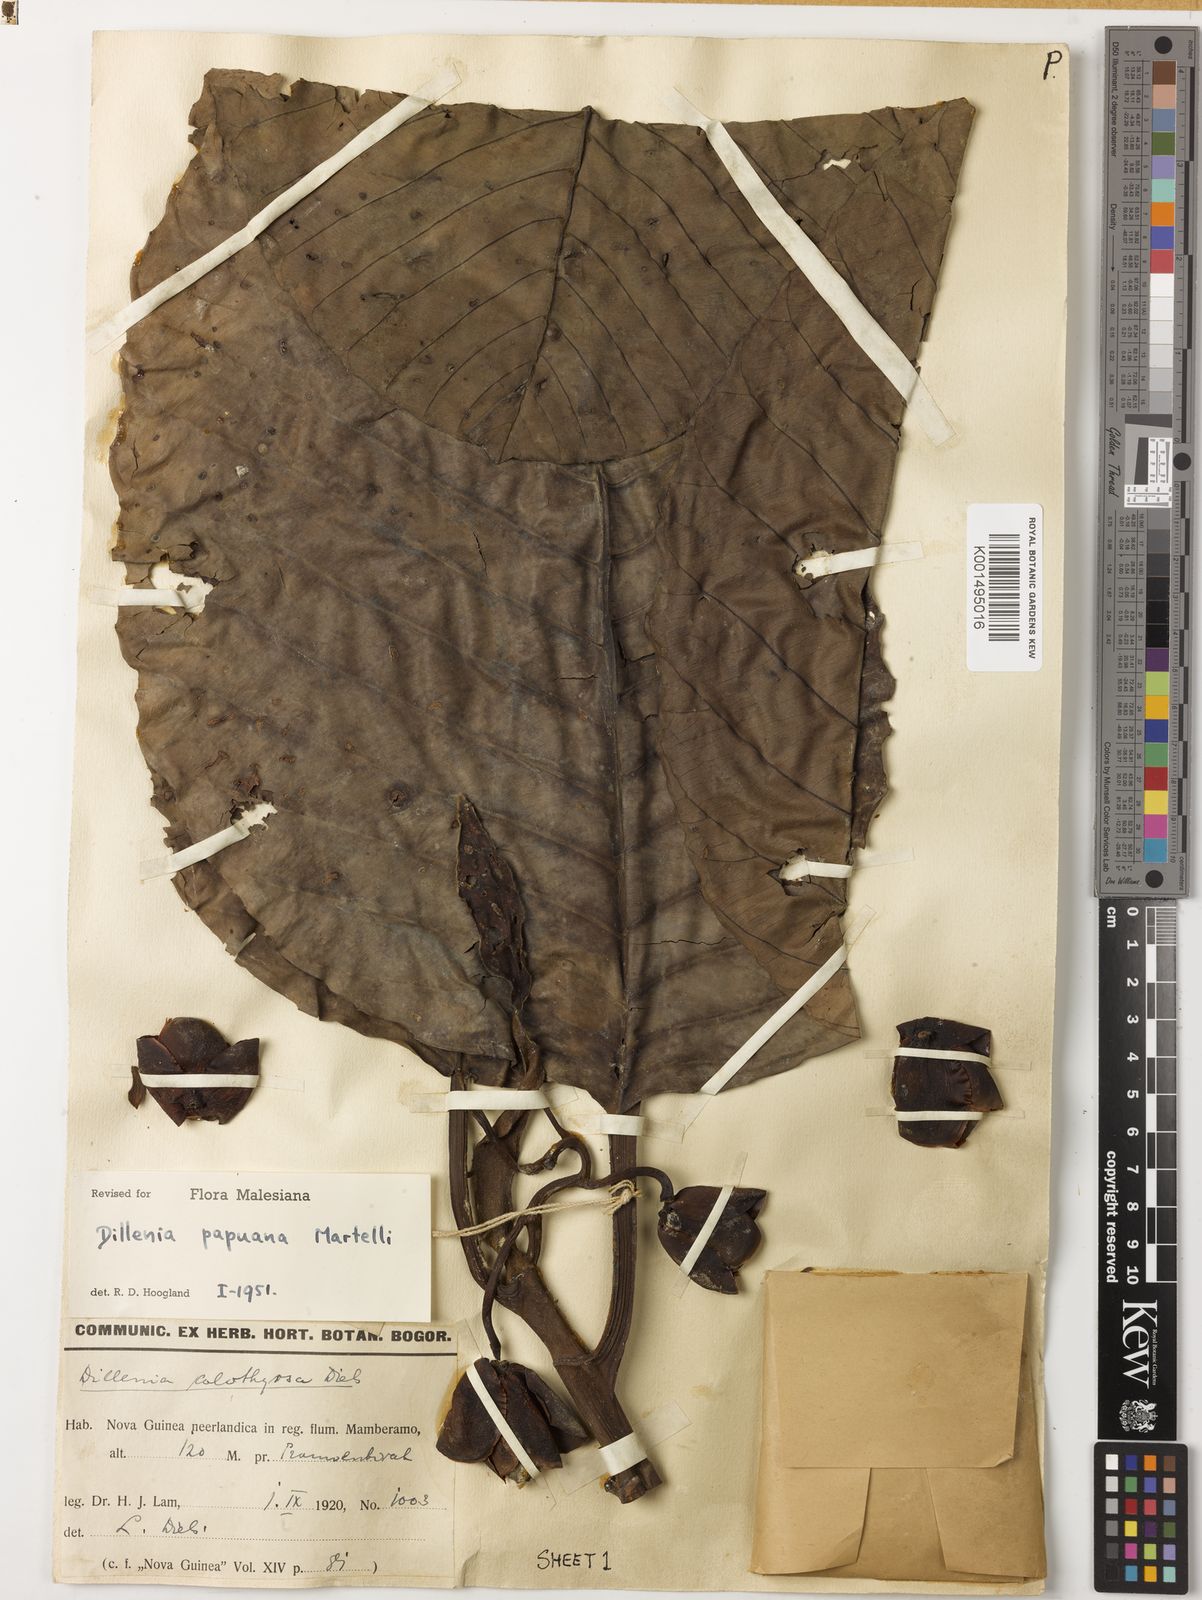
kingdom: Plantae
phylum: Tracheophyta
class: Magnoliopsida
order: Dilleniales
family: Dilleniaceae
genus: Dillenia
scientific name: Dillenia papuana
